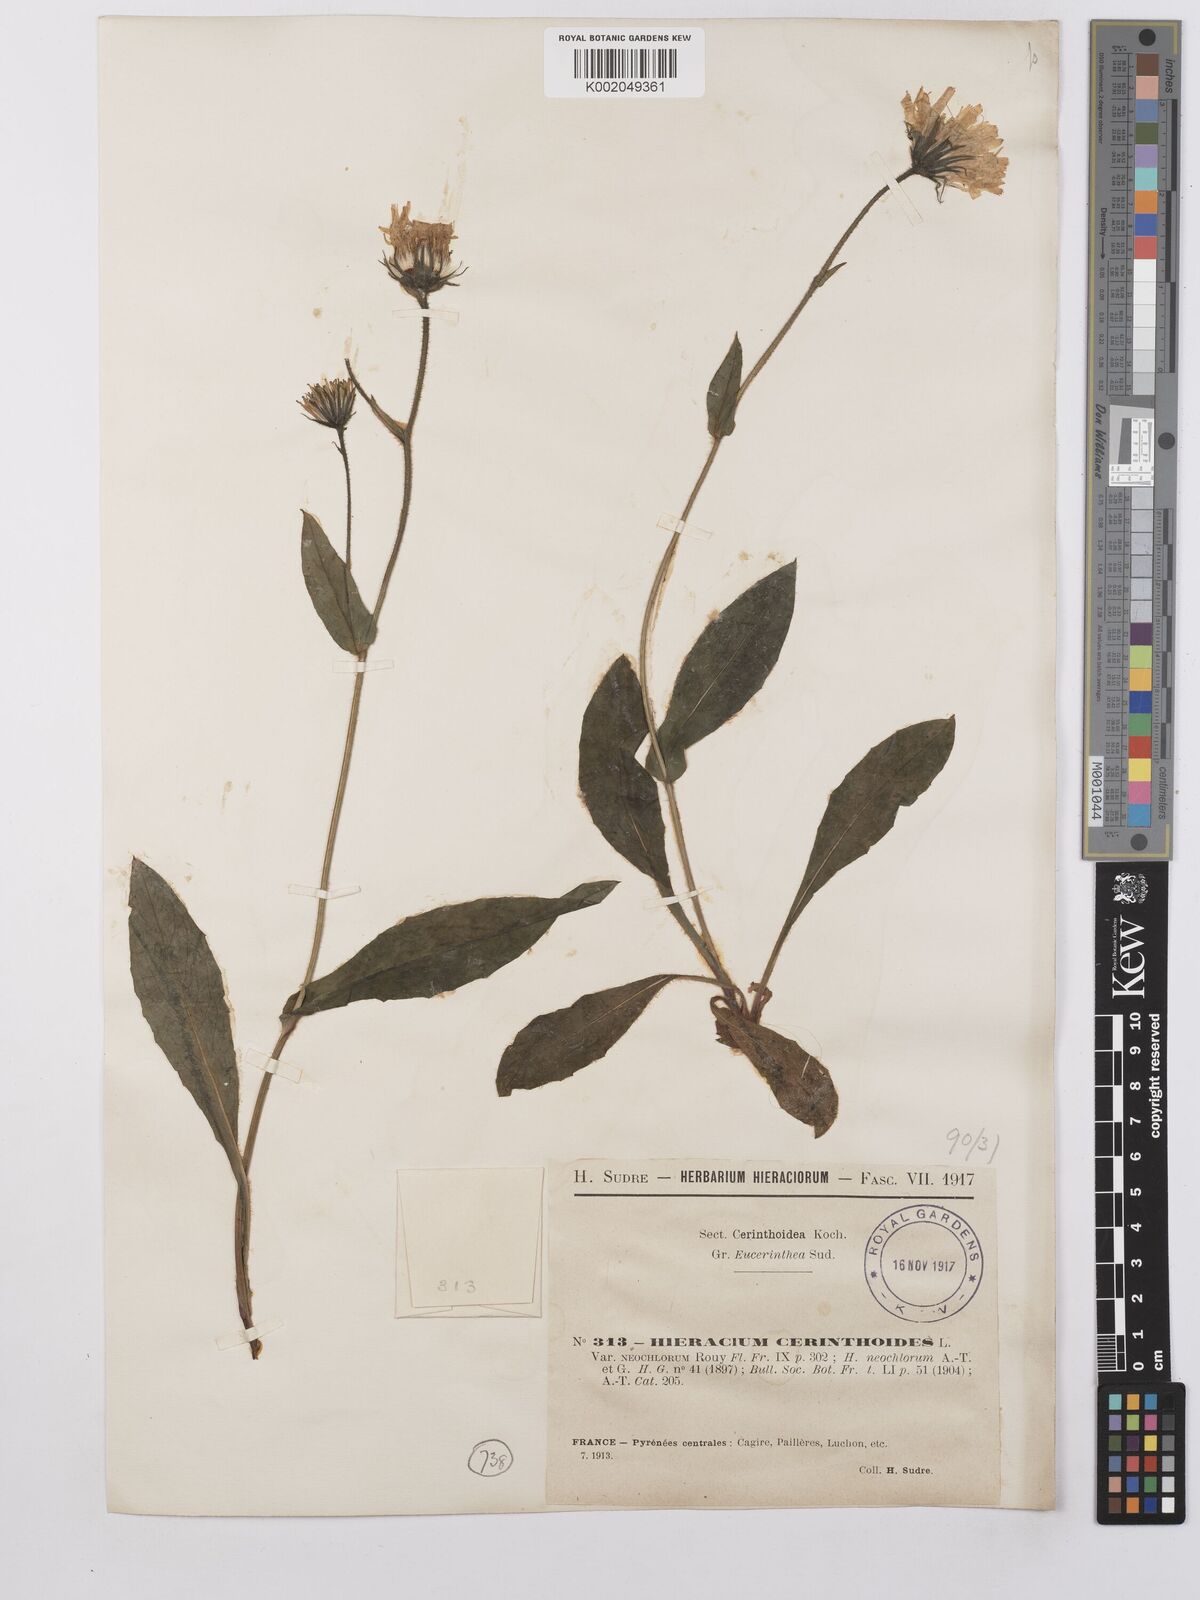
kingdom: Plantae
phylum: Tracheophyta
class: Magnoliopsida
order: Asterales
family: Asteraceae
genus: Hieracium
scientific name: Hieracium cerinthoides
